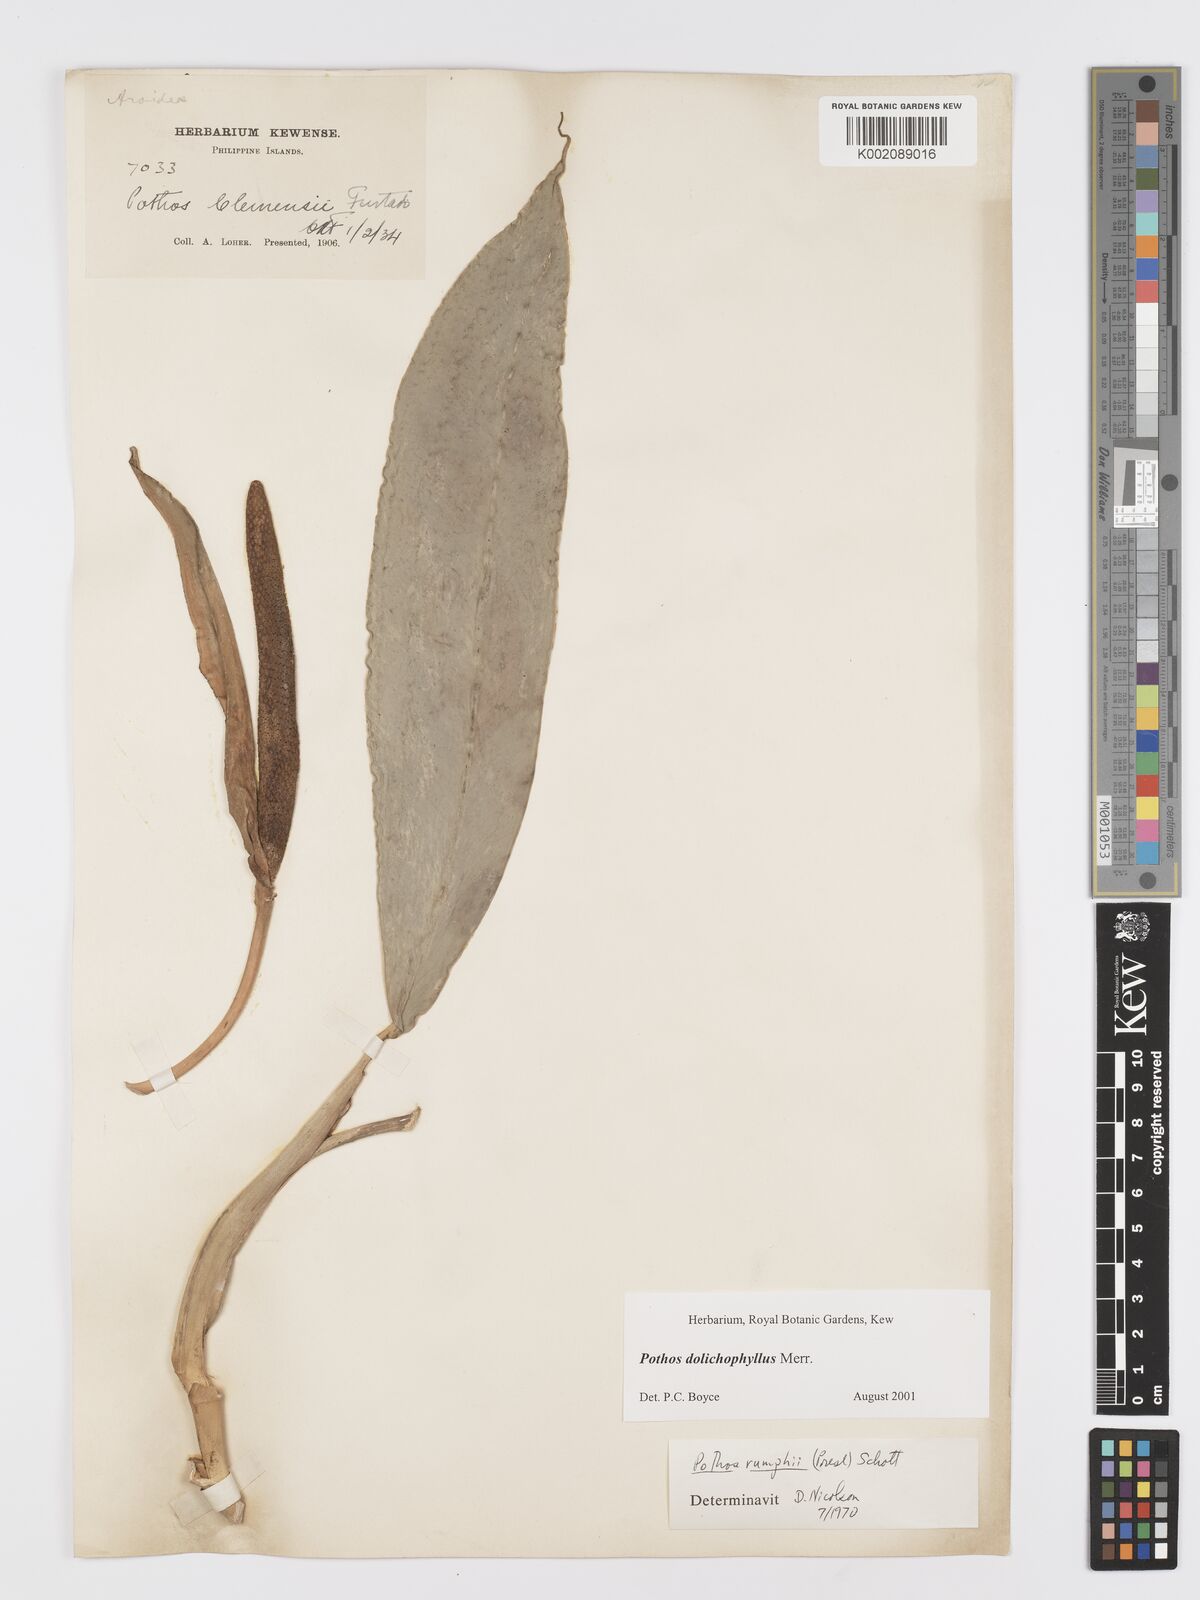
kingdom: Plantae
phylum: Tracheophyta
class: Liliopsida
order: Alismatales
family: Araceae
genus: Pothos
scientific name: Pothos dolichophyllus
